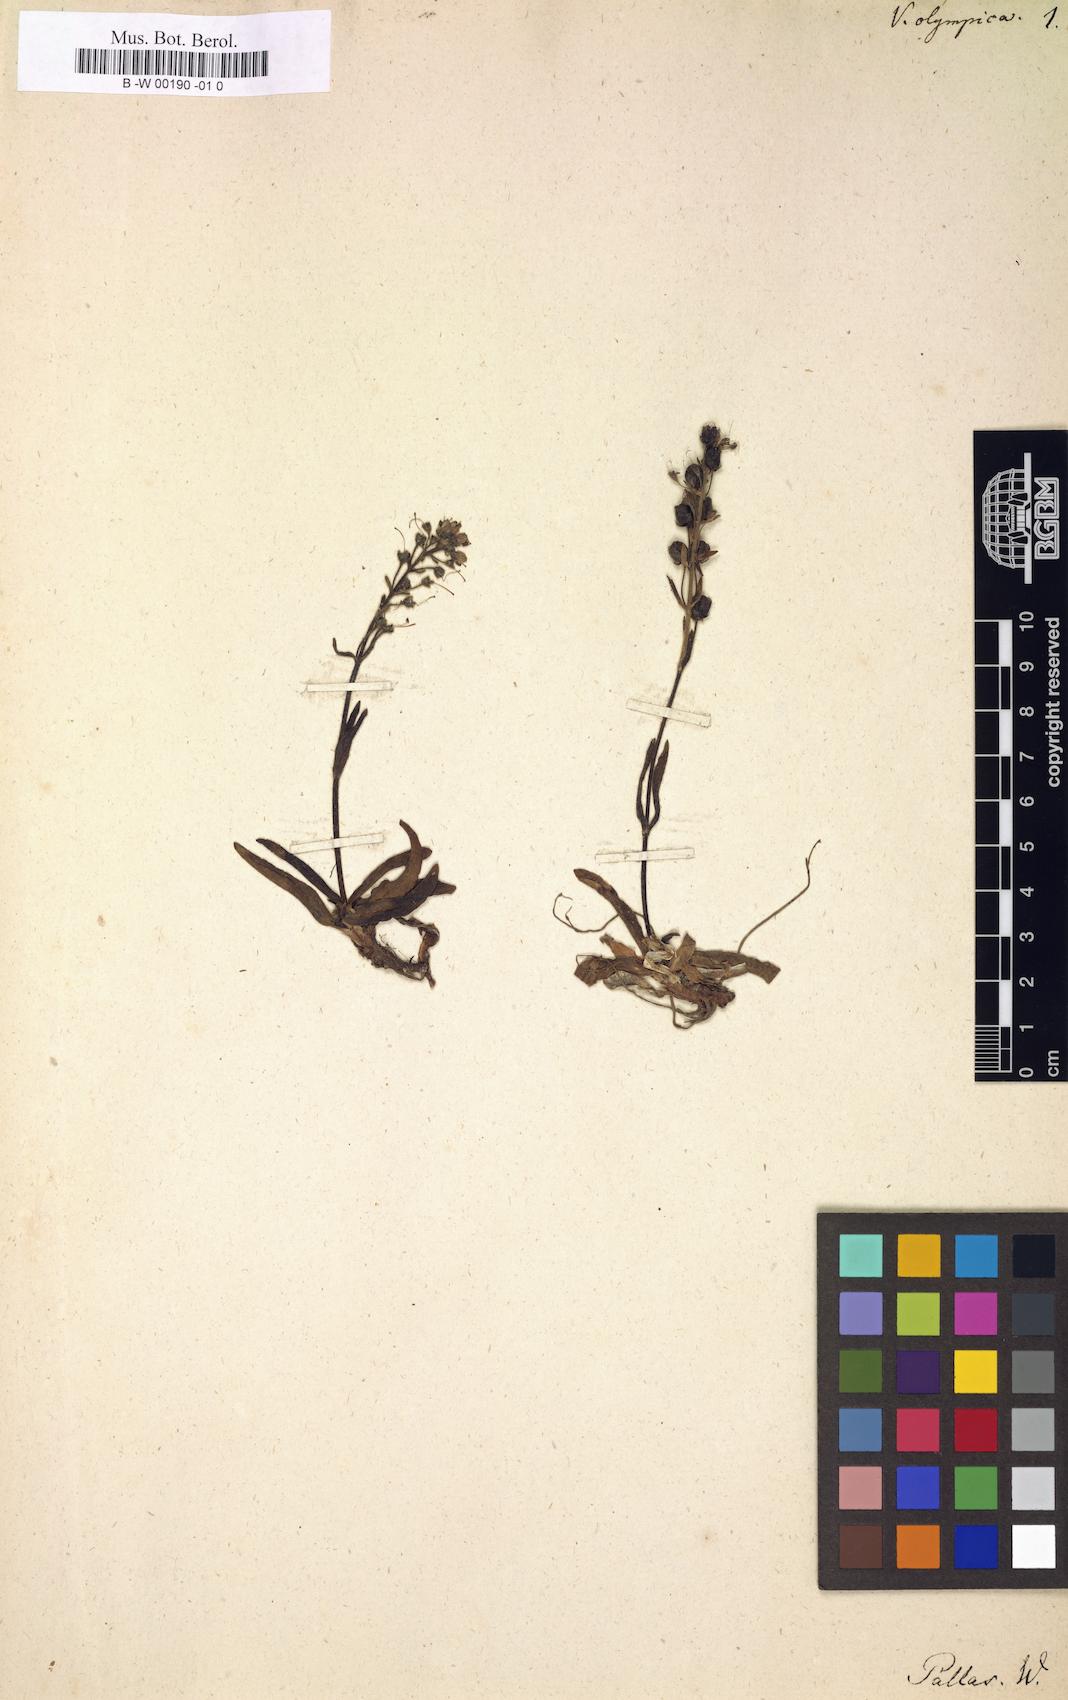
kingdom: Plantae
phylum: Tracheophyta
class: Magnoliopsida
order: Lamiales
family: Plantaginaceae
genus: Veronica
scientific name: Veronica gentianoides
